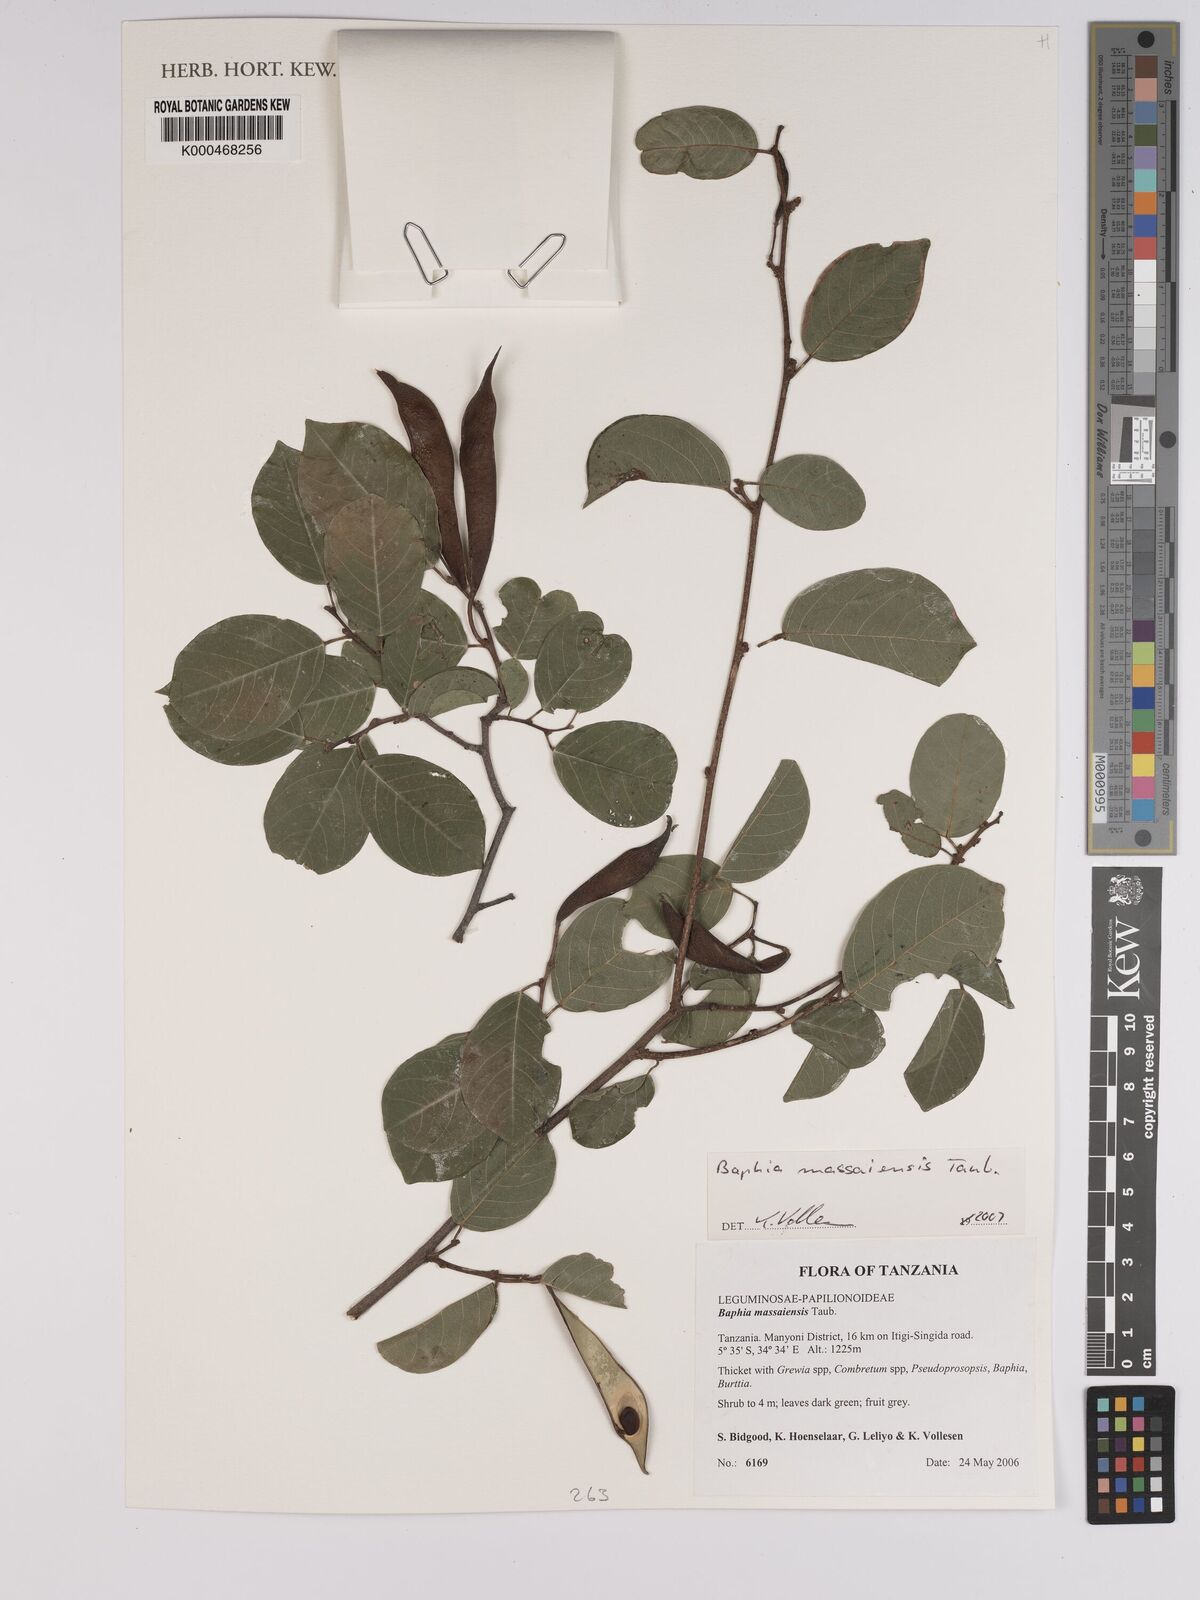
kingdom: Plantae
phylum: Tracheophyta
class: Magnoliopsida
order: Fabales
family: Fabaceae
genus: Baphia
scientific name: Baphia massaiensis
